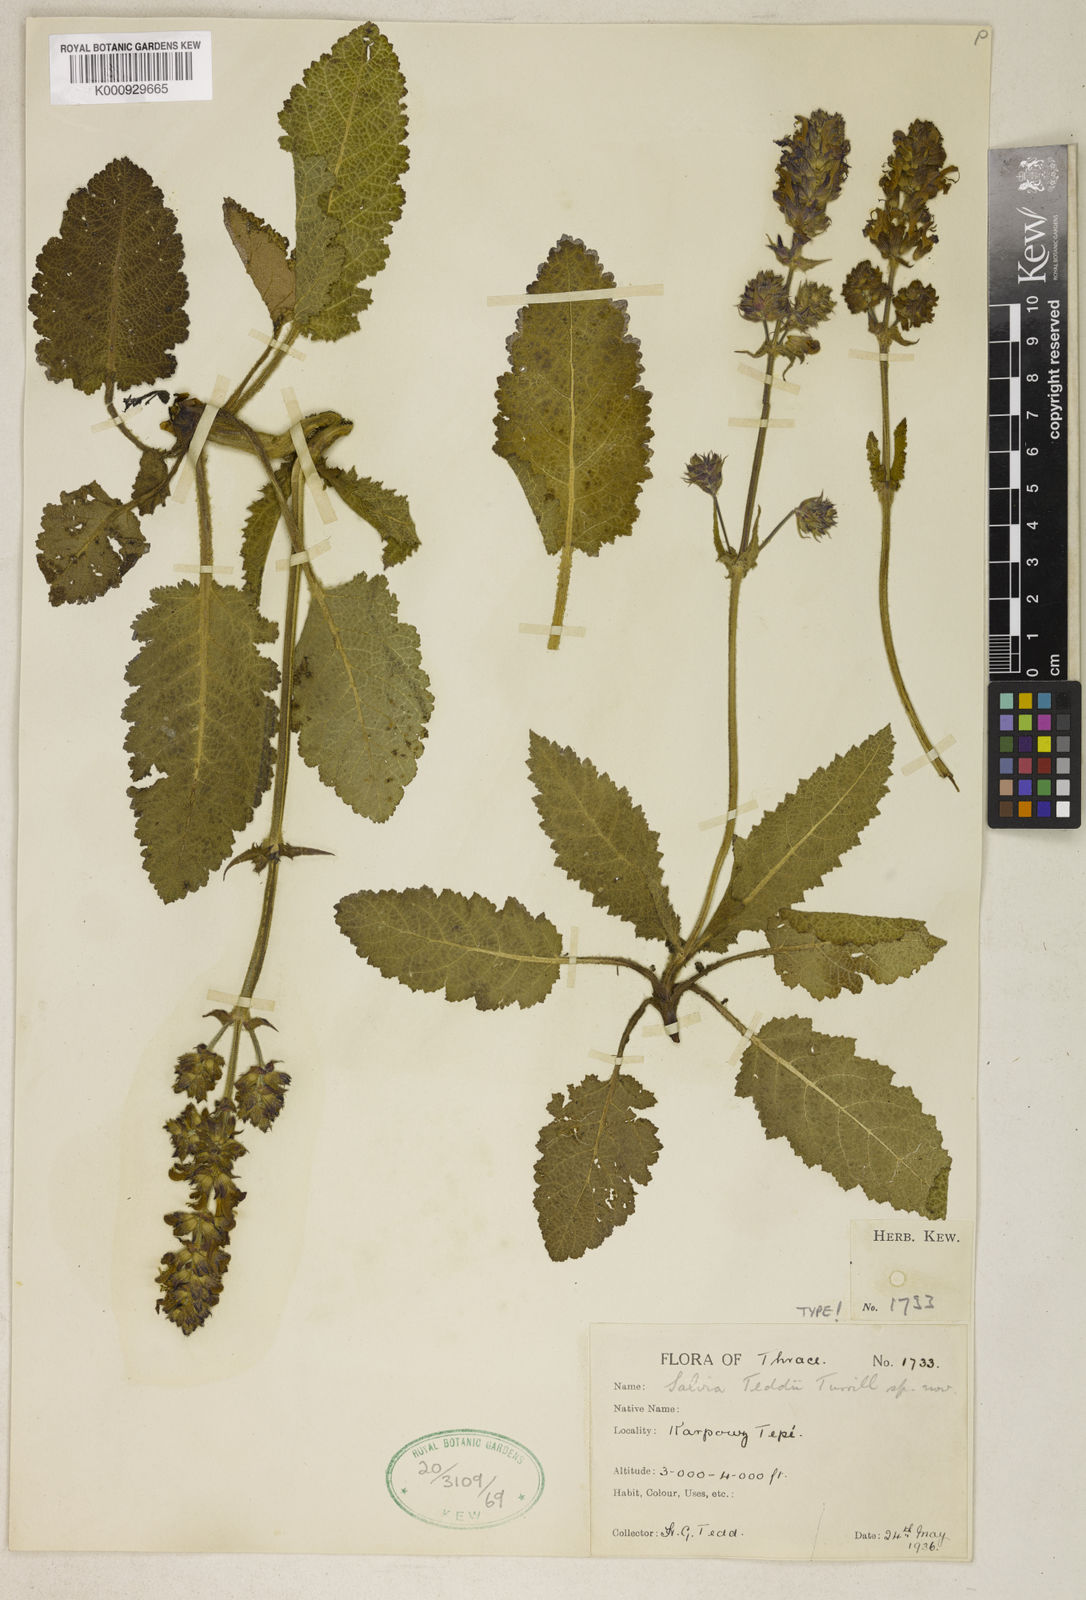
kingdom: Plantae
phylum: Tracheophyta
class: Magnoliopsida
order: Lamiales
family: Lamiaceae
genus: Salvia
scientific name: Salvia teddii
